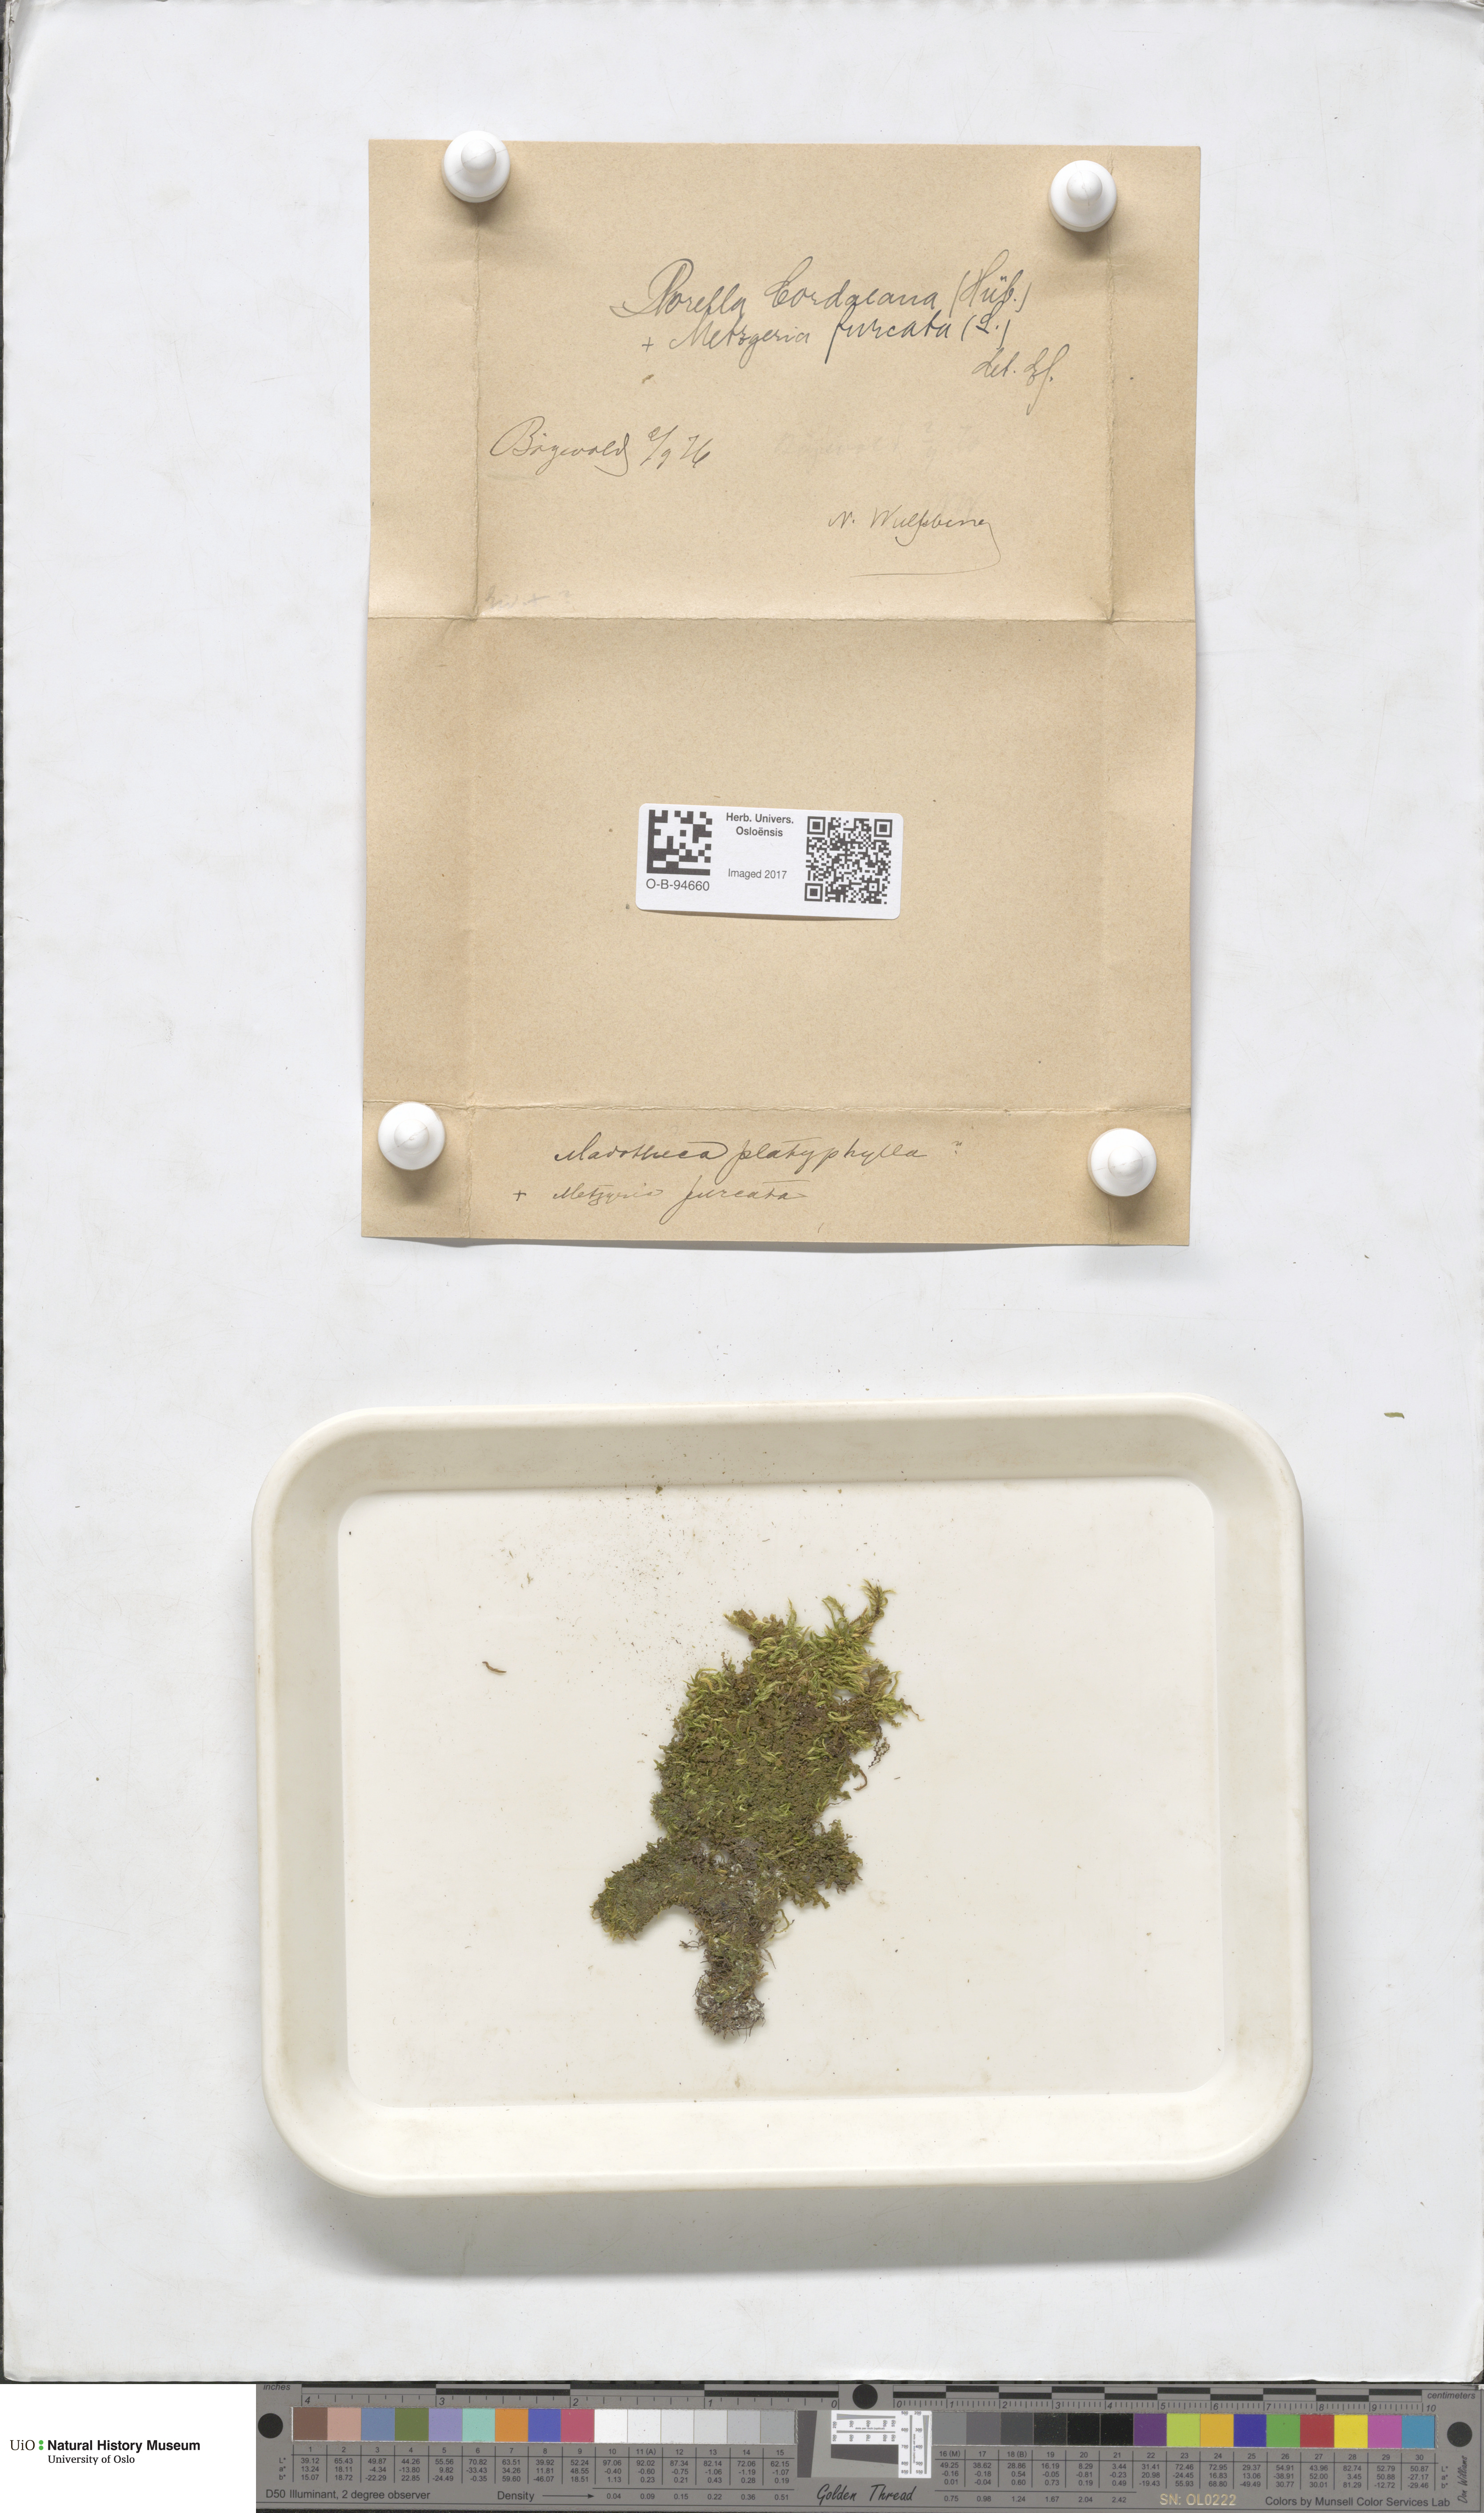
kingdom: Plantae
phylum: Marchantiophyta
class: Jungermanniopsida
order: Metzgeriales
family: Metzgeriaceae
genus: Metzgeria
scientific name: Metzgeria furcata
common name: Forked veilwort
